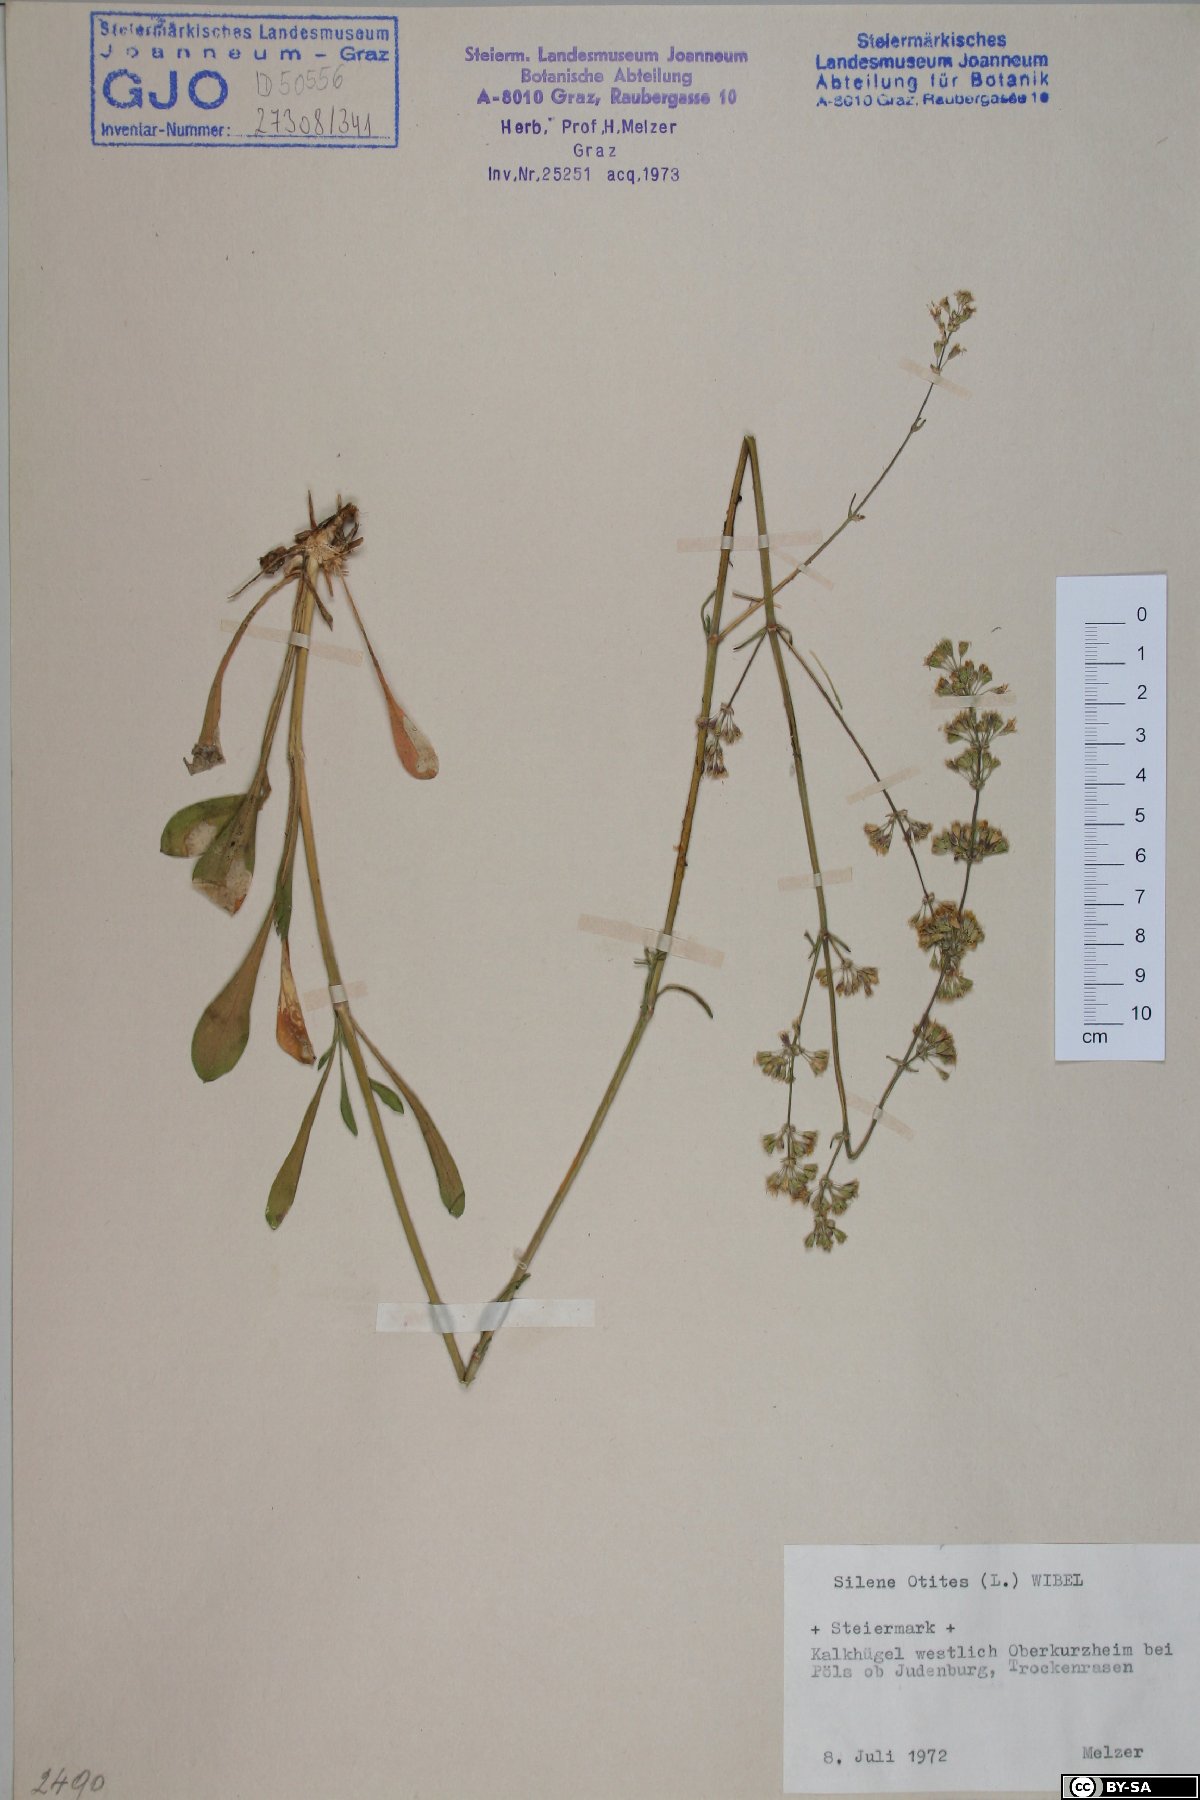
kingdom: Plantae
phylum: Tracheophyta
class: Magnoliopsida
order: Caryophyllales
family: Caryophyllaceae
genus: Silene
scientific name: Silene otites
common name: Spanish catchfly
